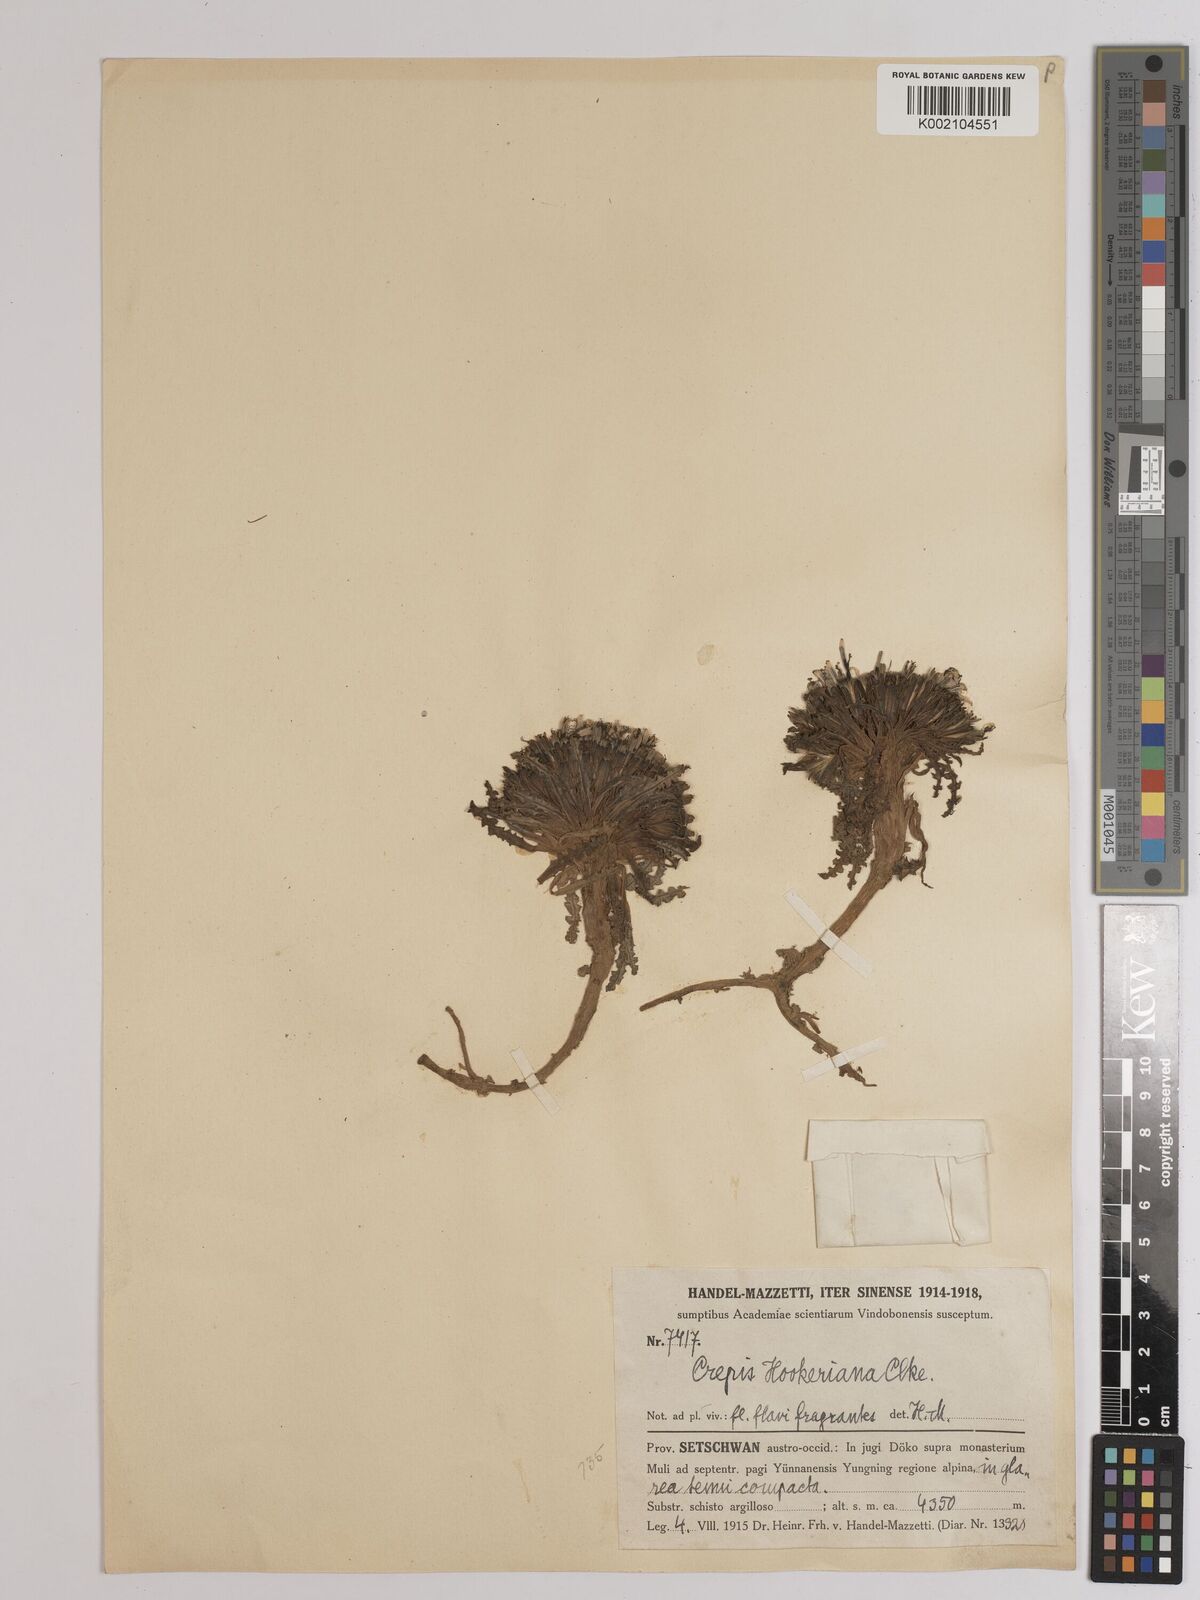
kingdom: Plantae
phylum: Tracheophyta
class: Magnoliopsida
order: Asterales
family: Asteraceae
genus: Soroseris
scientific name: Soroseris hookeriana
